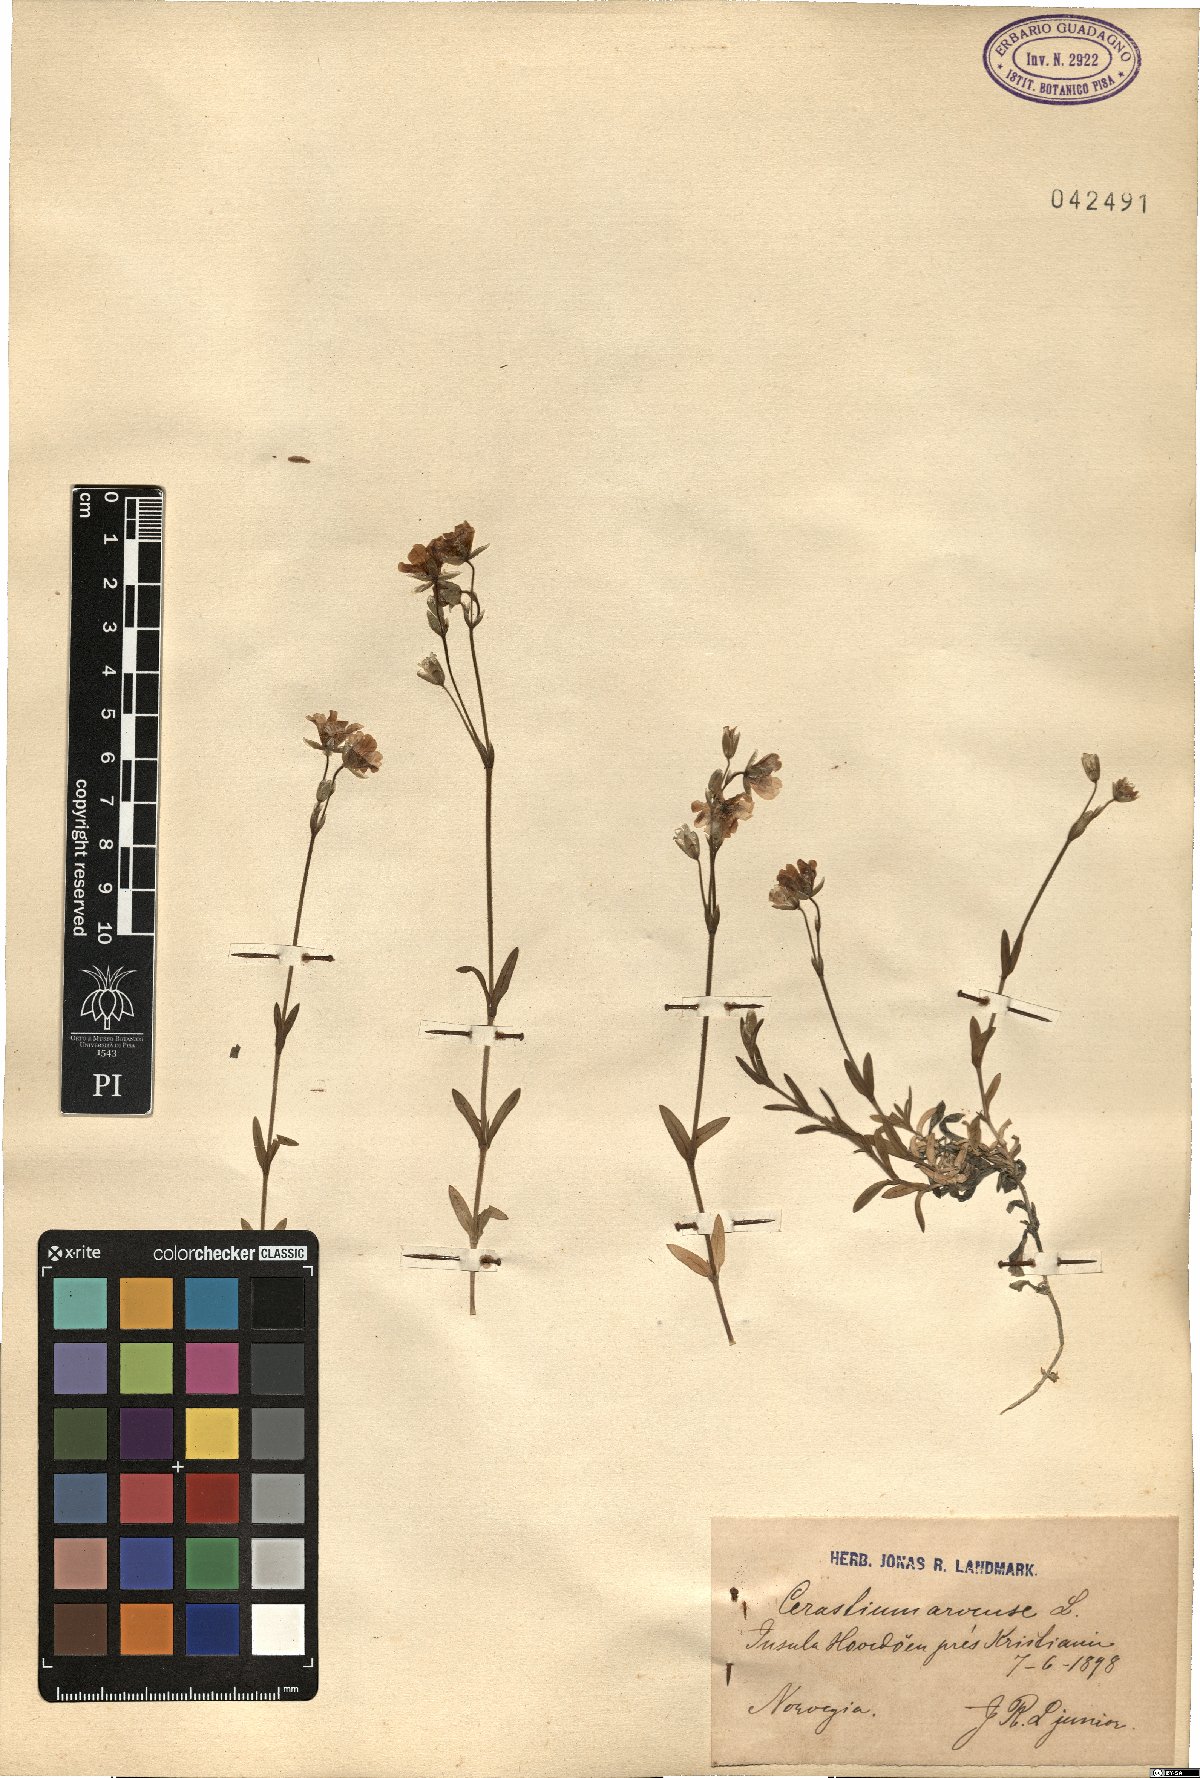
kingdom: Plantae
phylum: Tracheophyta
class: Magnoliopsida
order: Caryophyllales
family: Caryophyllaceae
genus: Cerastium
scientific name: Cerastium arvense
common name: Field mouse-ear
